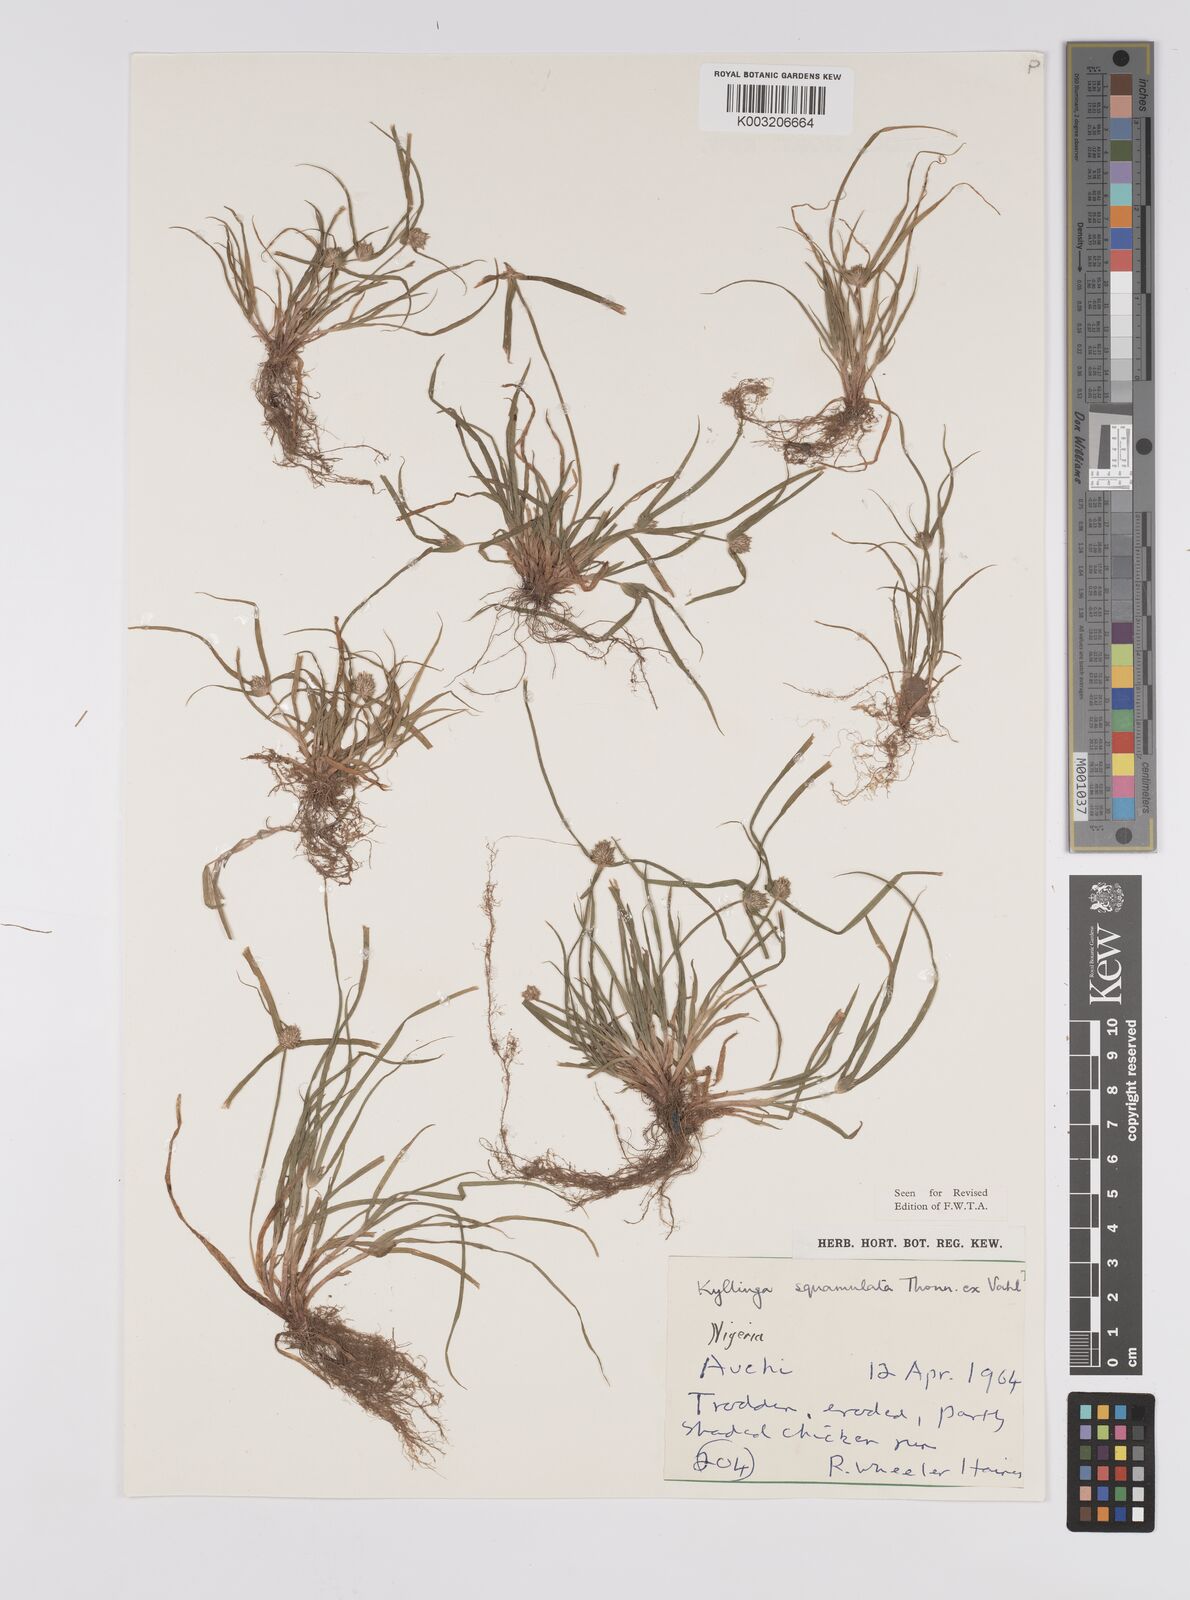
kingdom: Plantae
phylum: Tracheophyta
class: Liliopsida
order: Poales
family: Cyperaceae
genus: Cyperus
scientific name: Cyperus distans
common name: Slender cyperus
